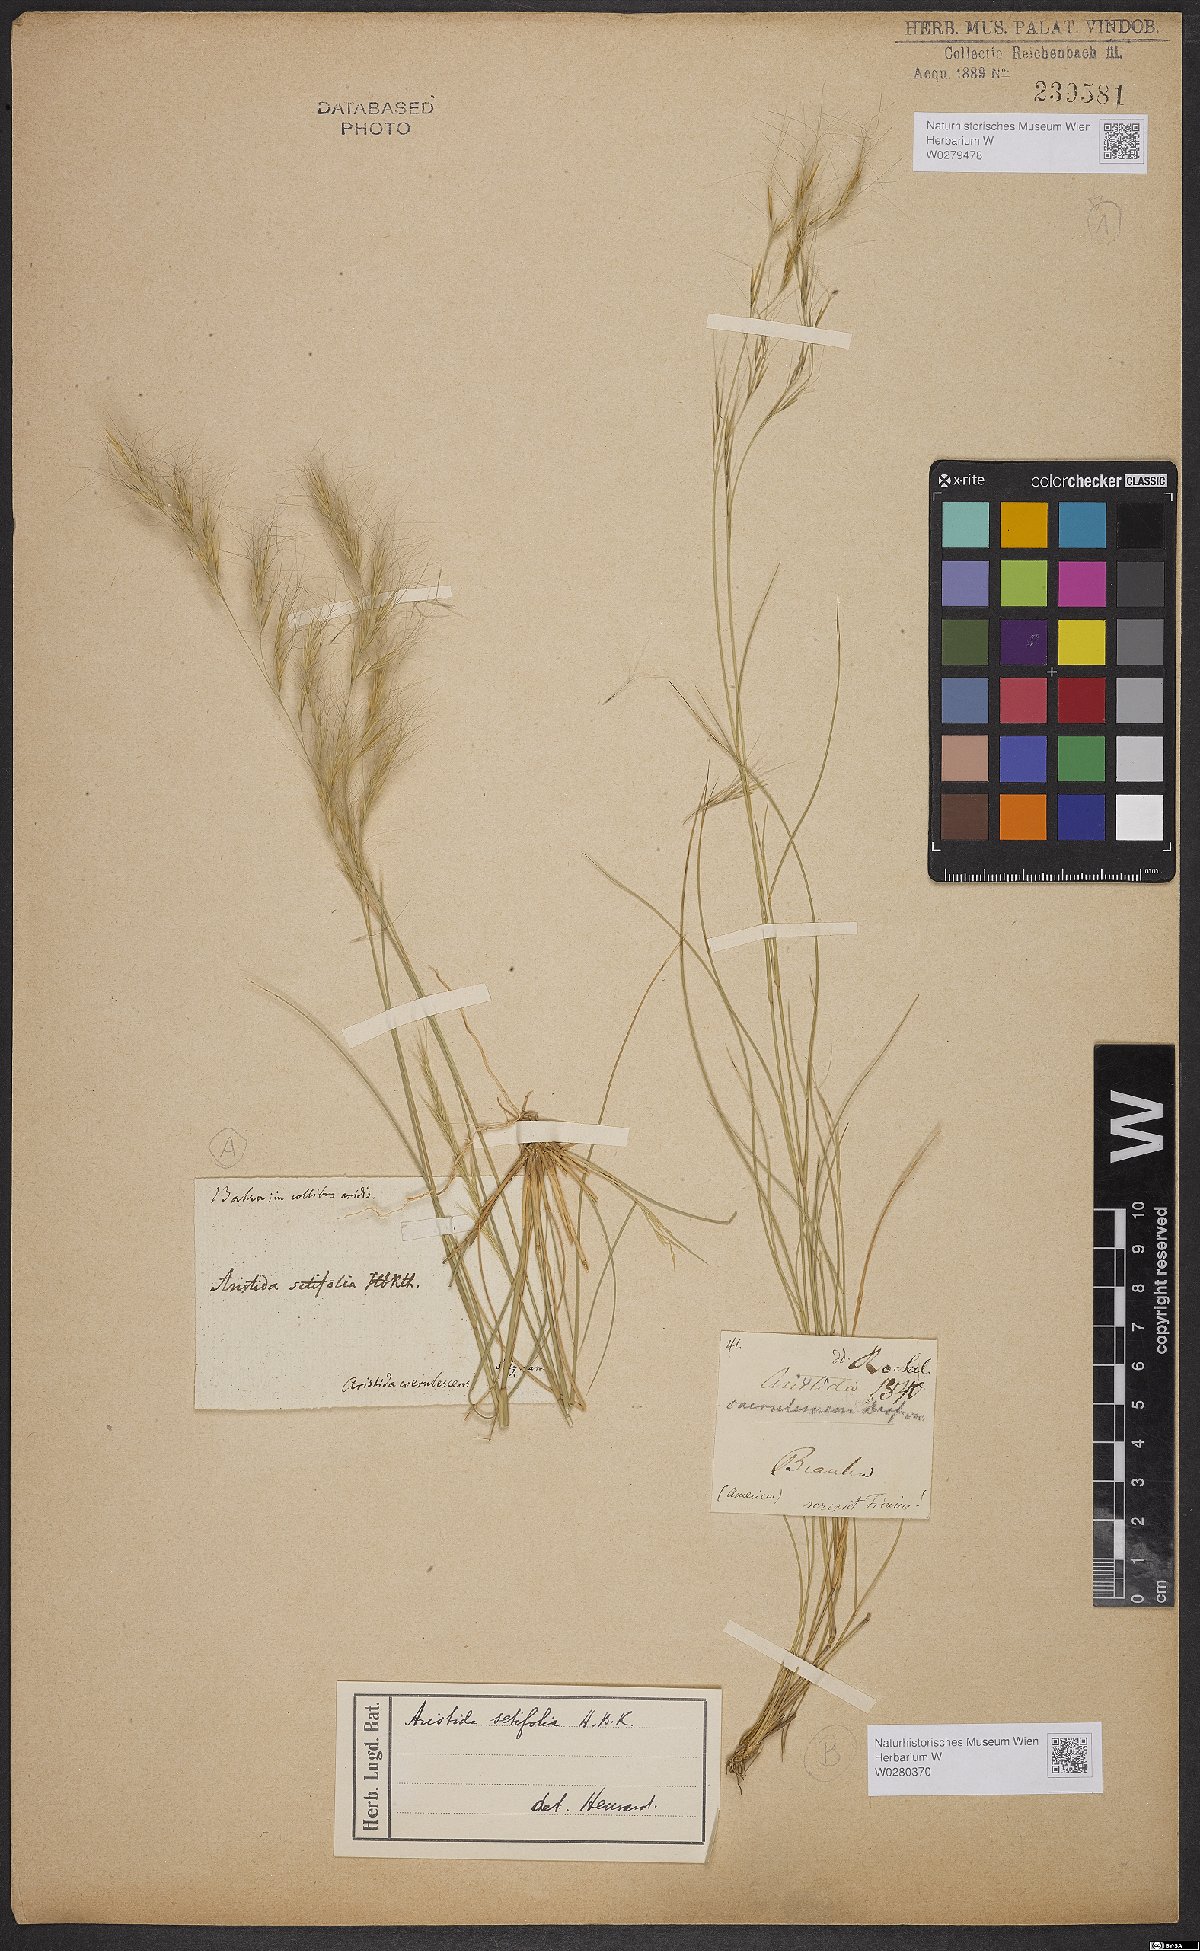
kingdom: Plantae
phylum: Tracheophyta
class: Liliopsida
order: Poales
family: Poaceae
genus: Aristida
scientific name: Aristida setifolia
